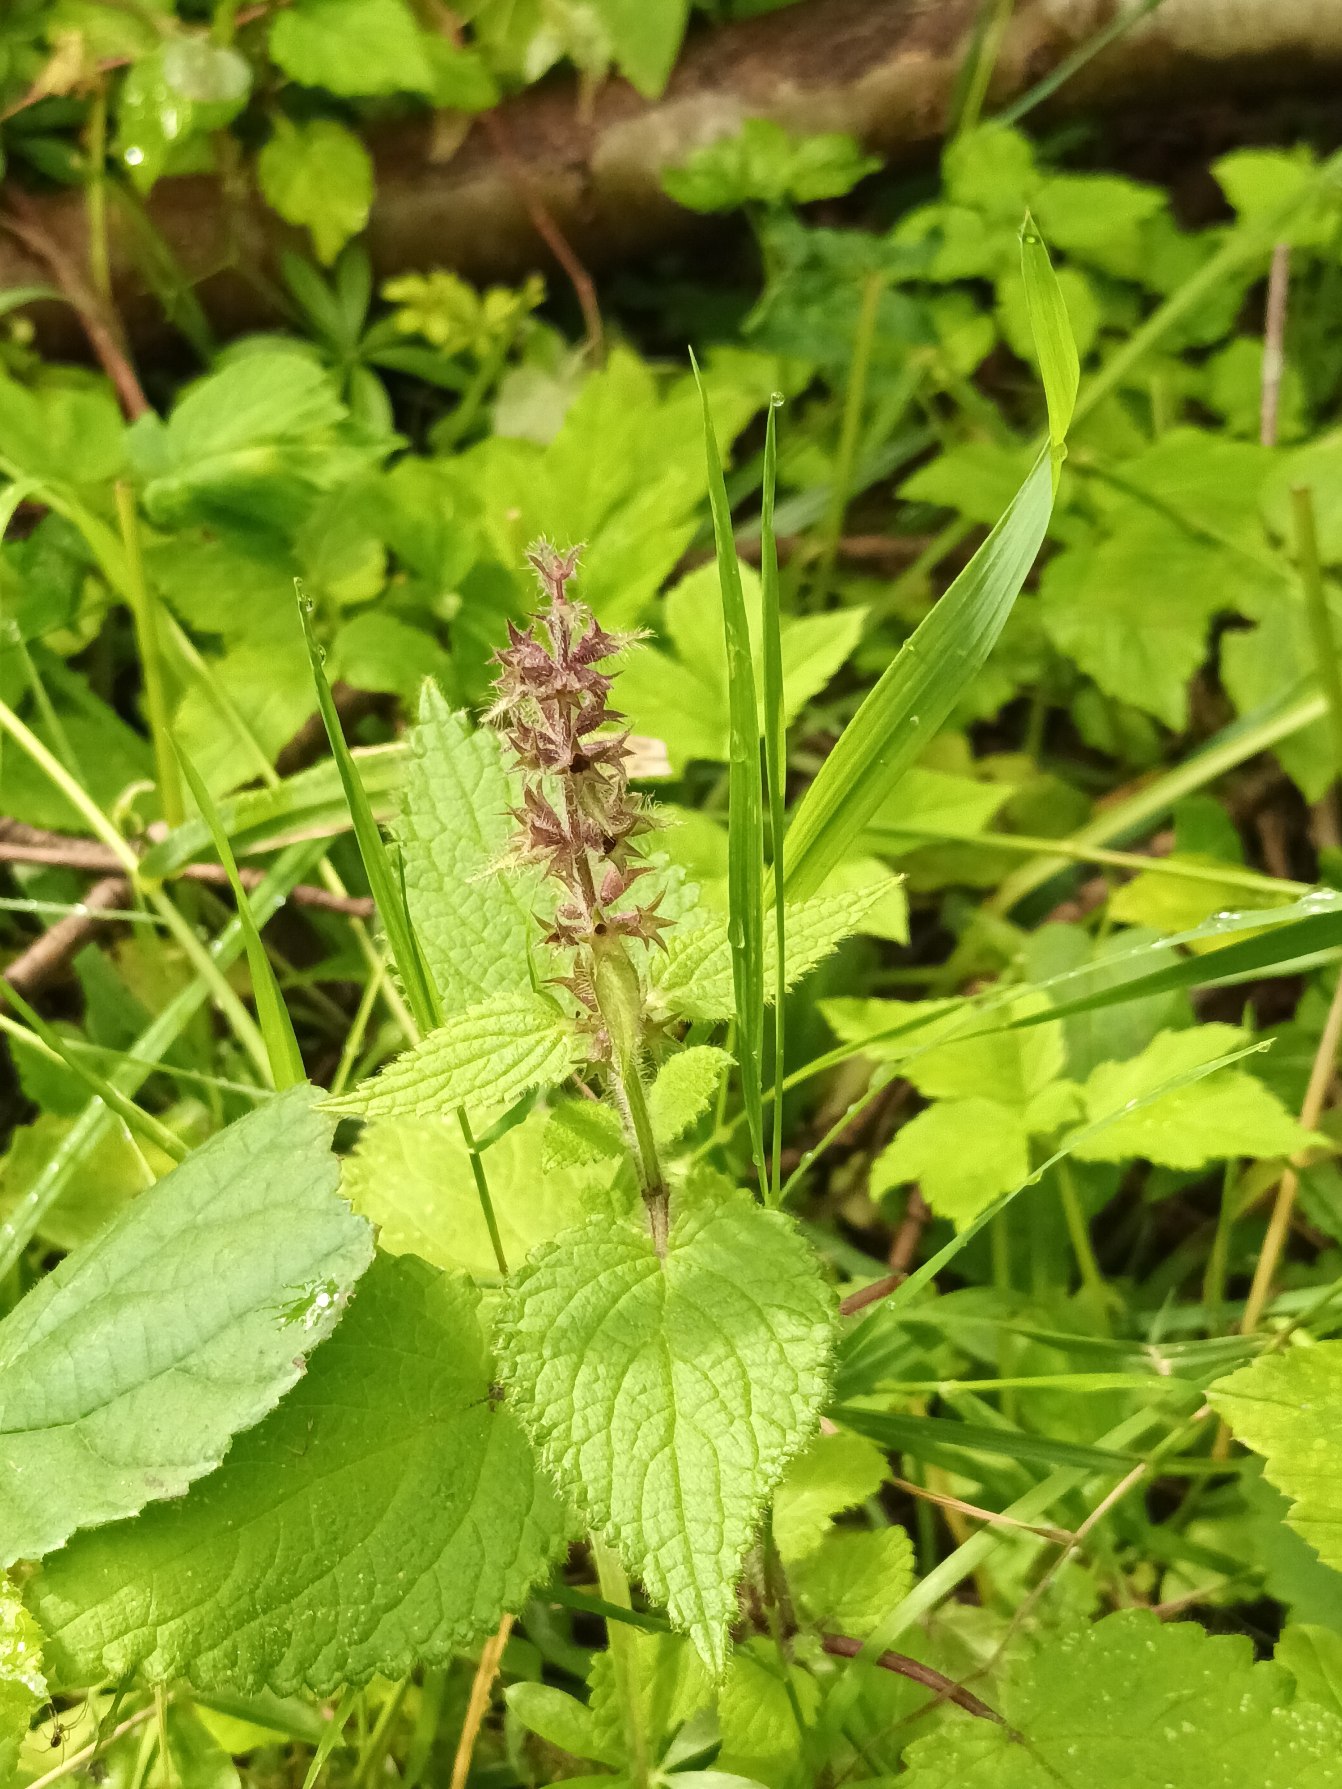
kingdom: Plantae
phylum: Tracheophyta
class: Magnoliopsida
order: Lamiales
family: Lamiaceae
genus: Stachys
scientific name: Stachys sylvatica
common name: Skov-galtetand
